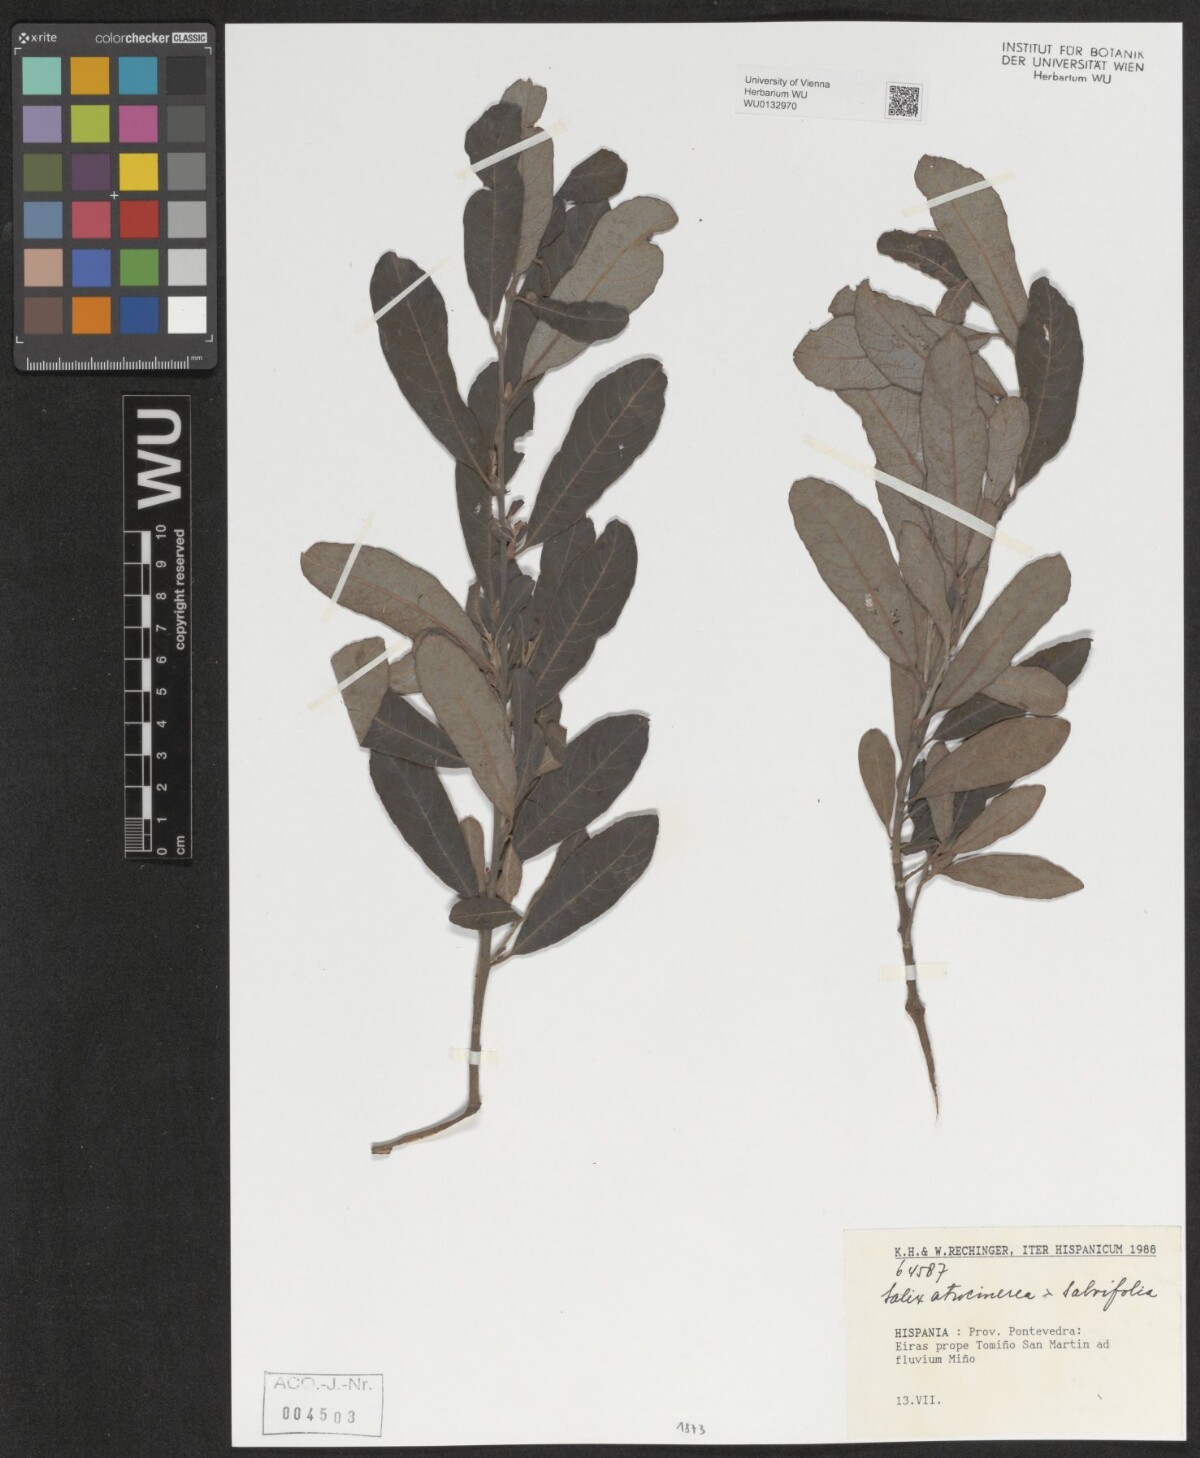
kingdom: Plantae
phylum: Tracheophyta
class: Magnoliopsida
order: Malpighiales
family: Salicaceae
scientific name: Salicaceae
